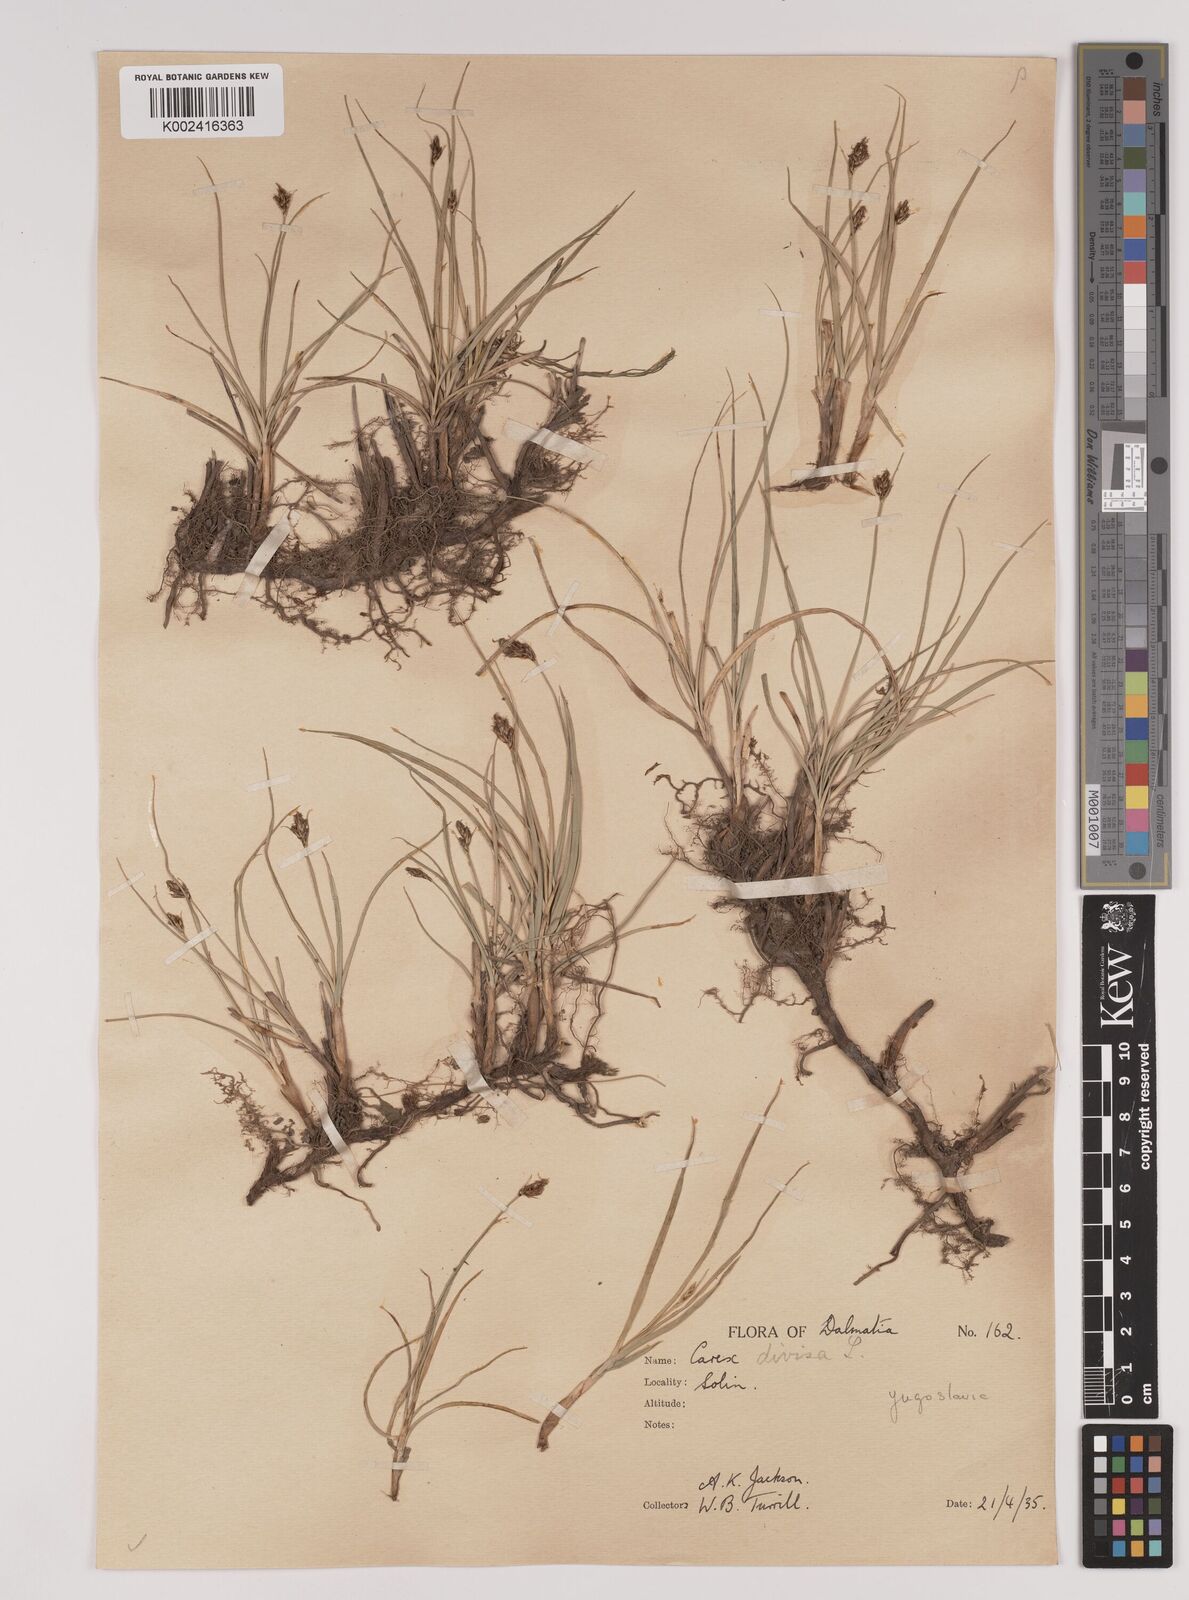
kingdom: Plantae
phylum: Tracheophyta
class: Liliopsida
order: Poales
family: Cyperaceae
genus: Carex
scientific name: Carex divisa
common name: Divided sedge
